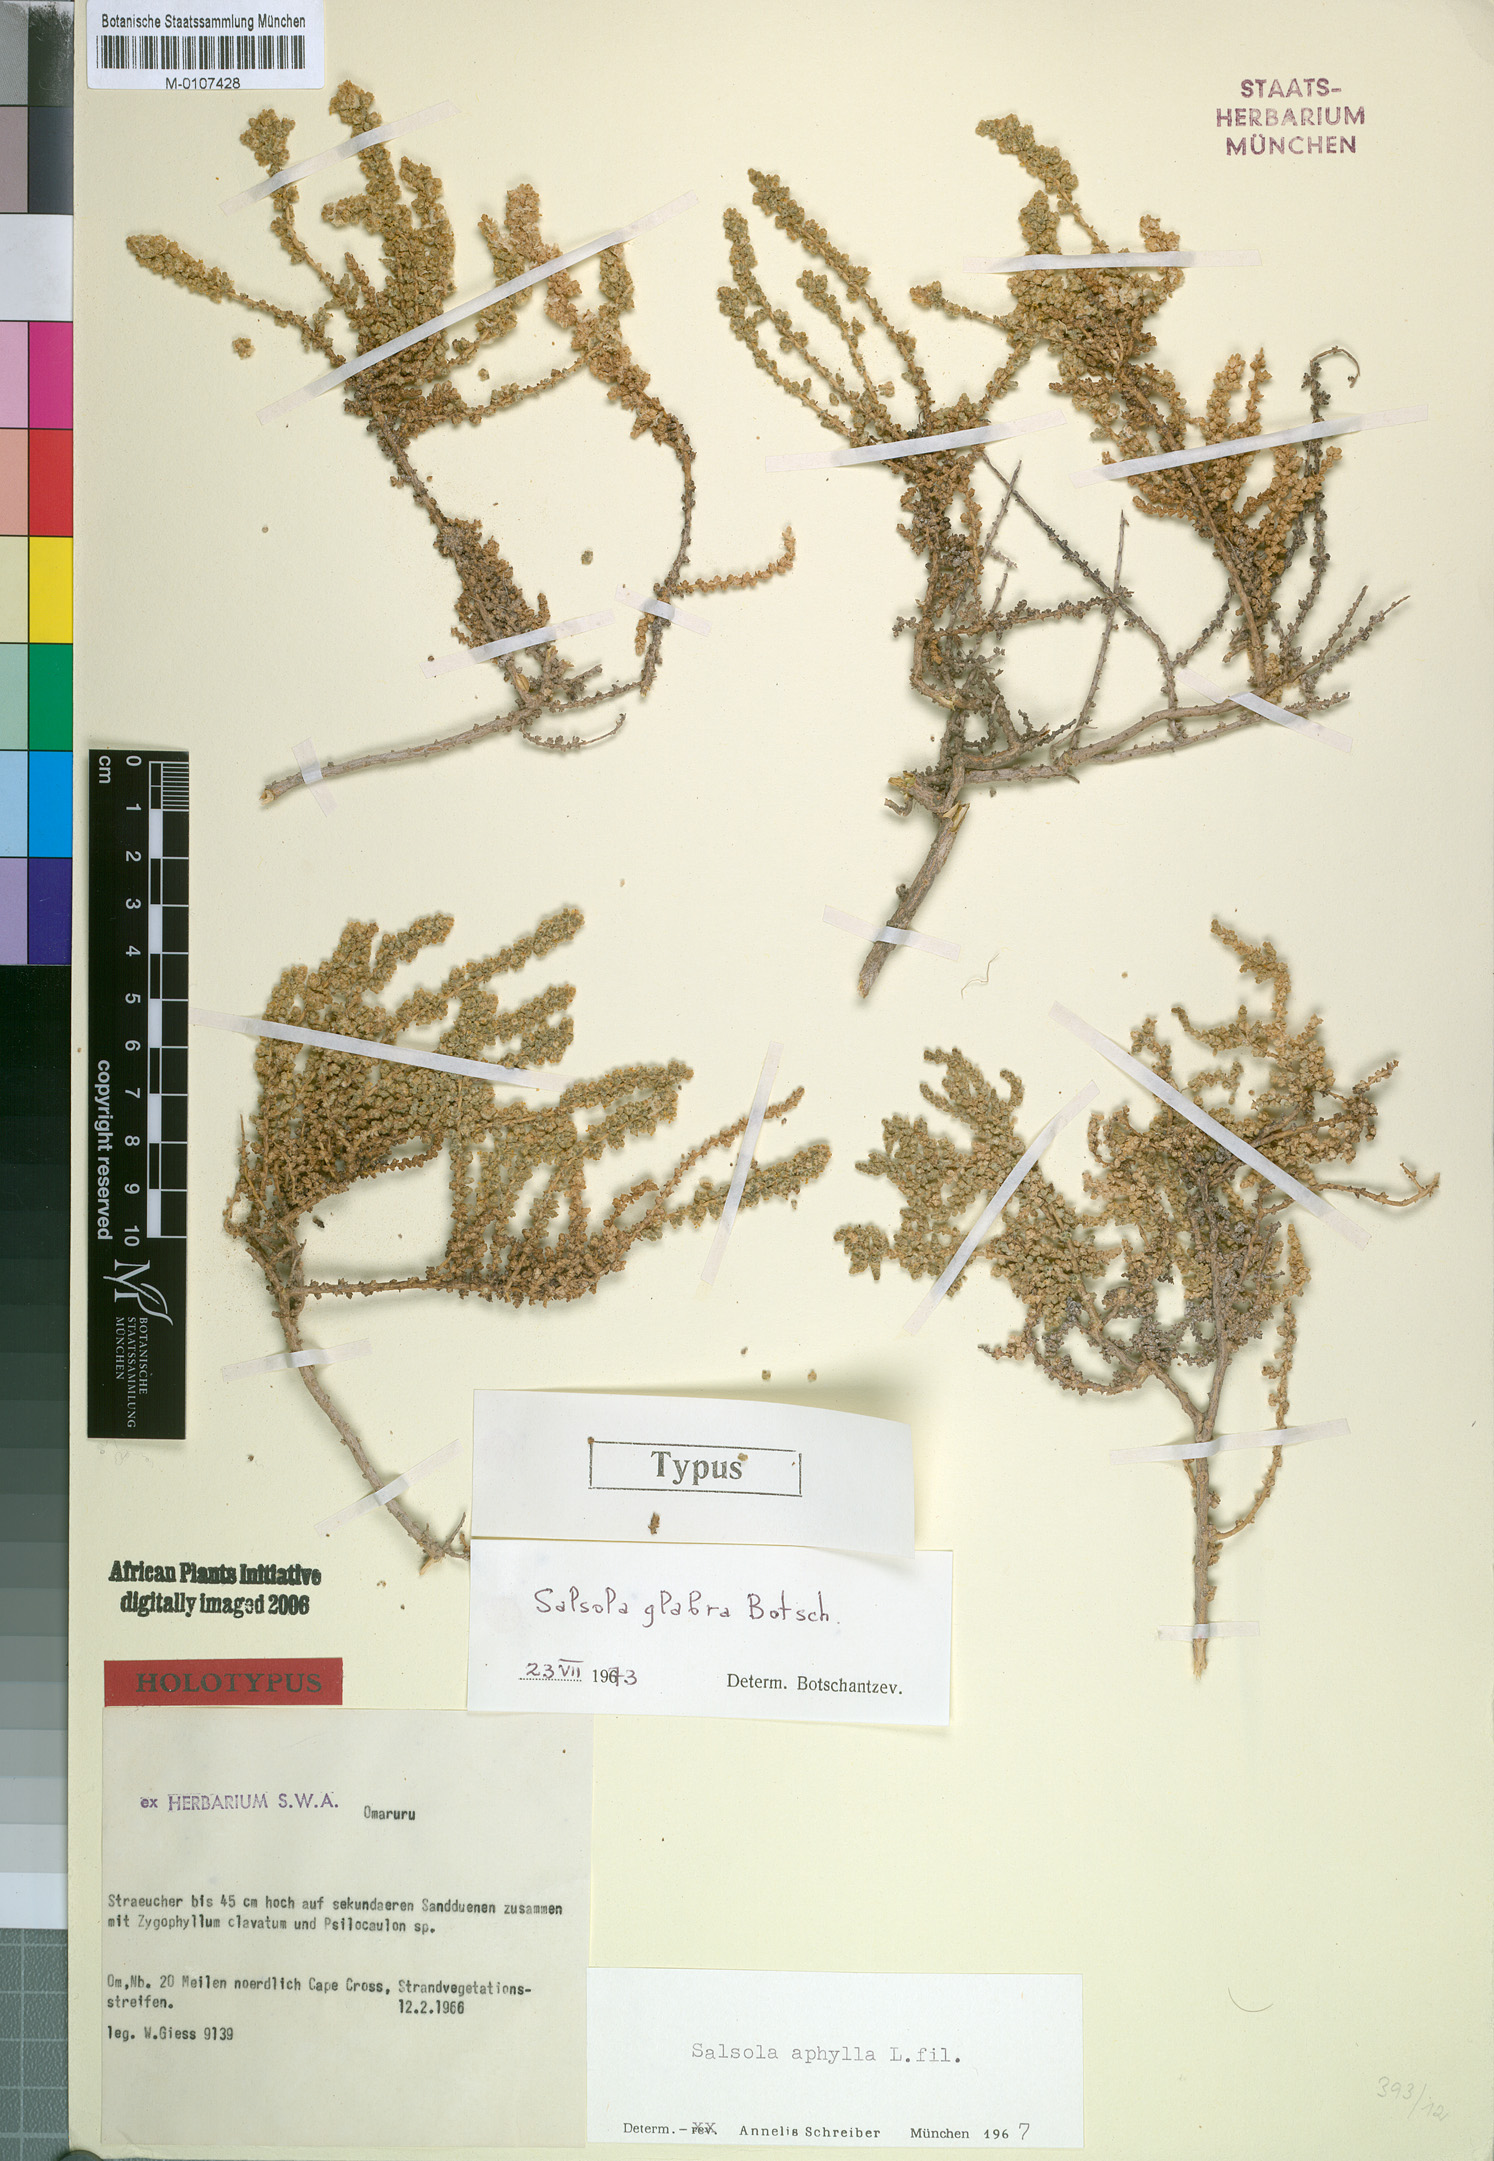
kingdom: Plantae
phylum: Tracheophyta
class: Magnoliopsida
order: Caryophyllales
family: Amaranthaceae
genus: Caroxylon
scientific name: Caroxylon glabrum
